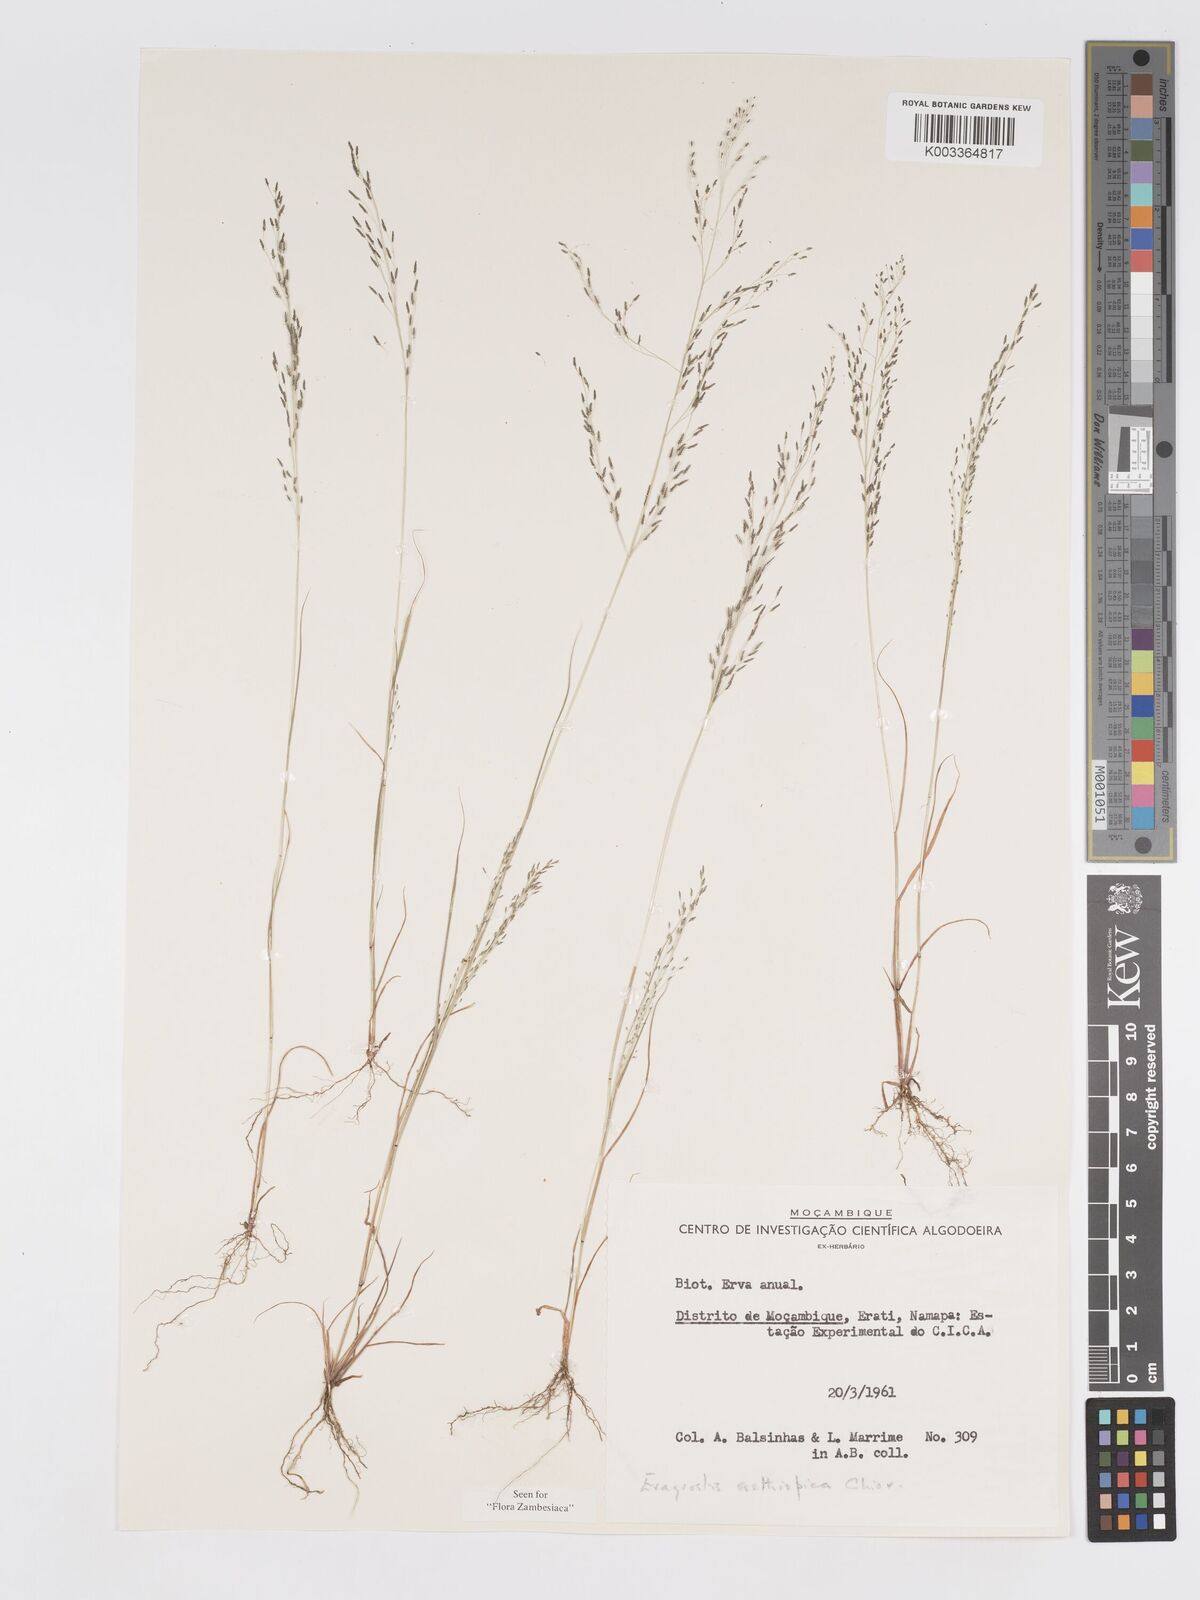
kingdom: Plantae
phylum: Tracheophyta
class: Liliopsida
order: Poales
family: Poaceae
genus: Eragrostis
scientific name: Eragrostis aethiopica
